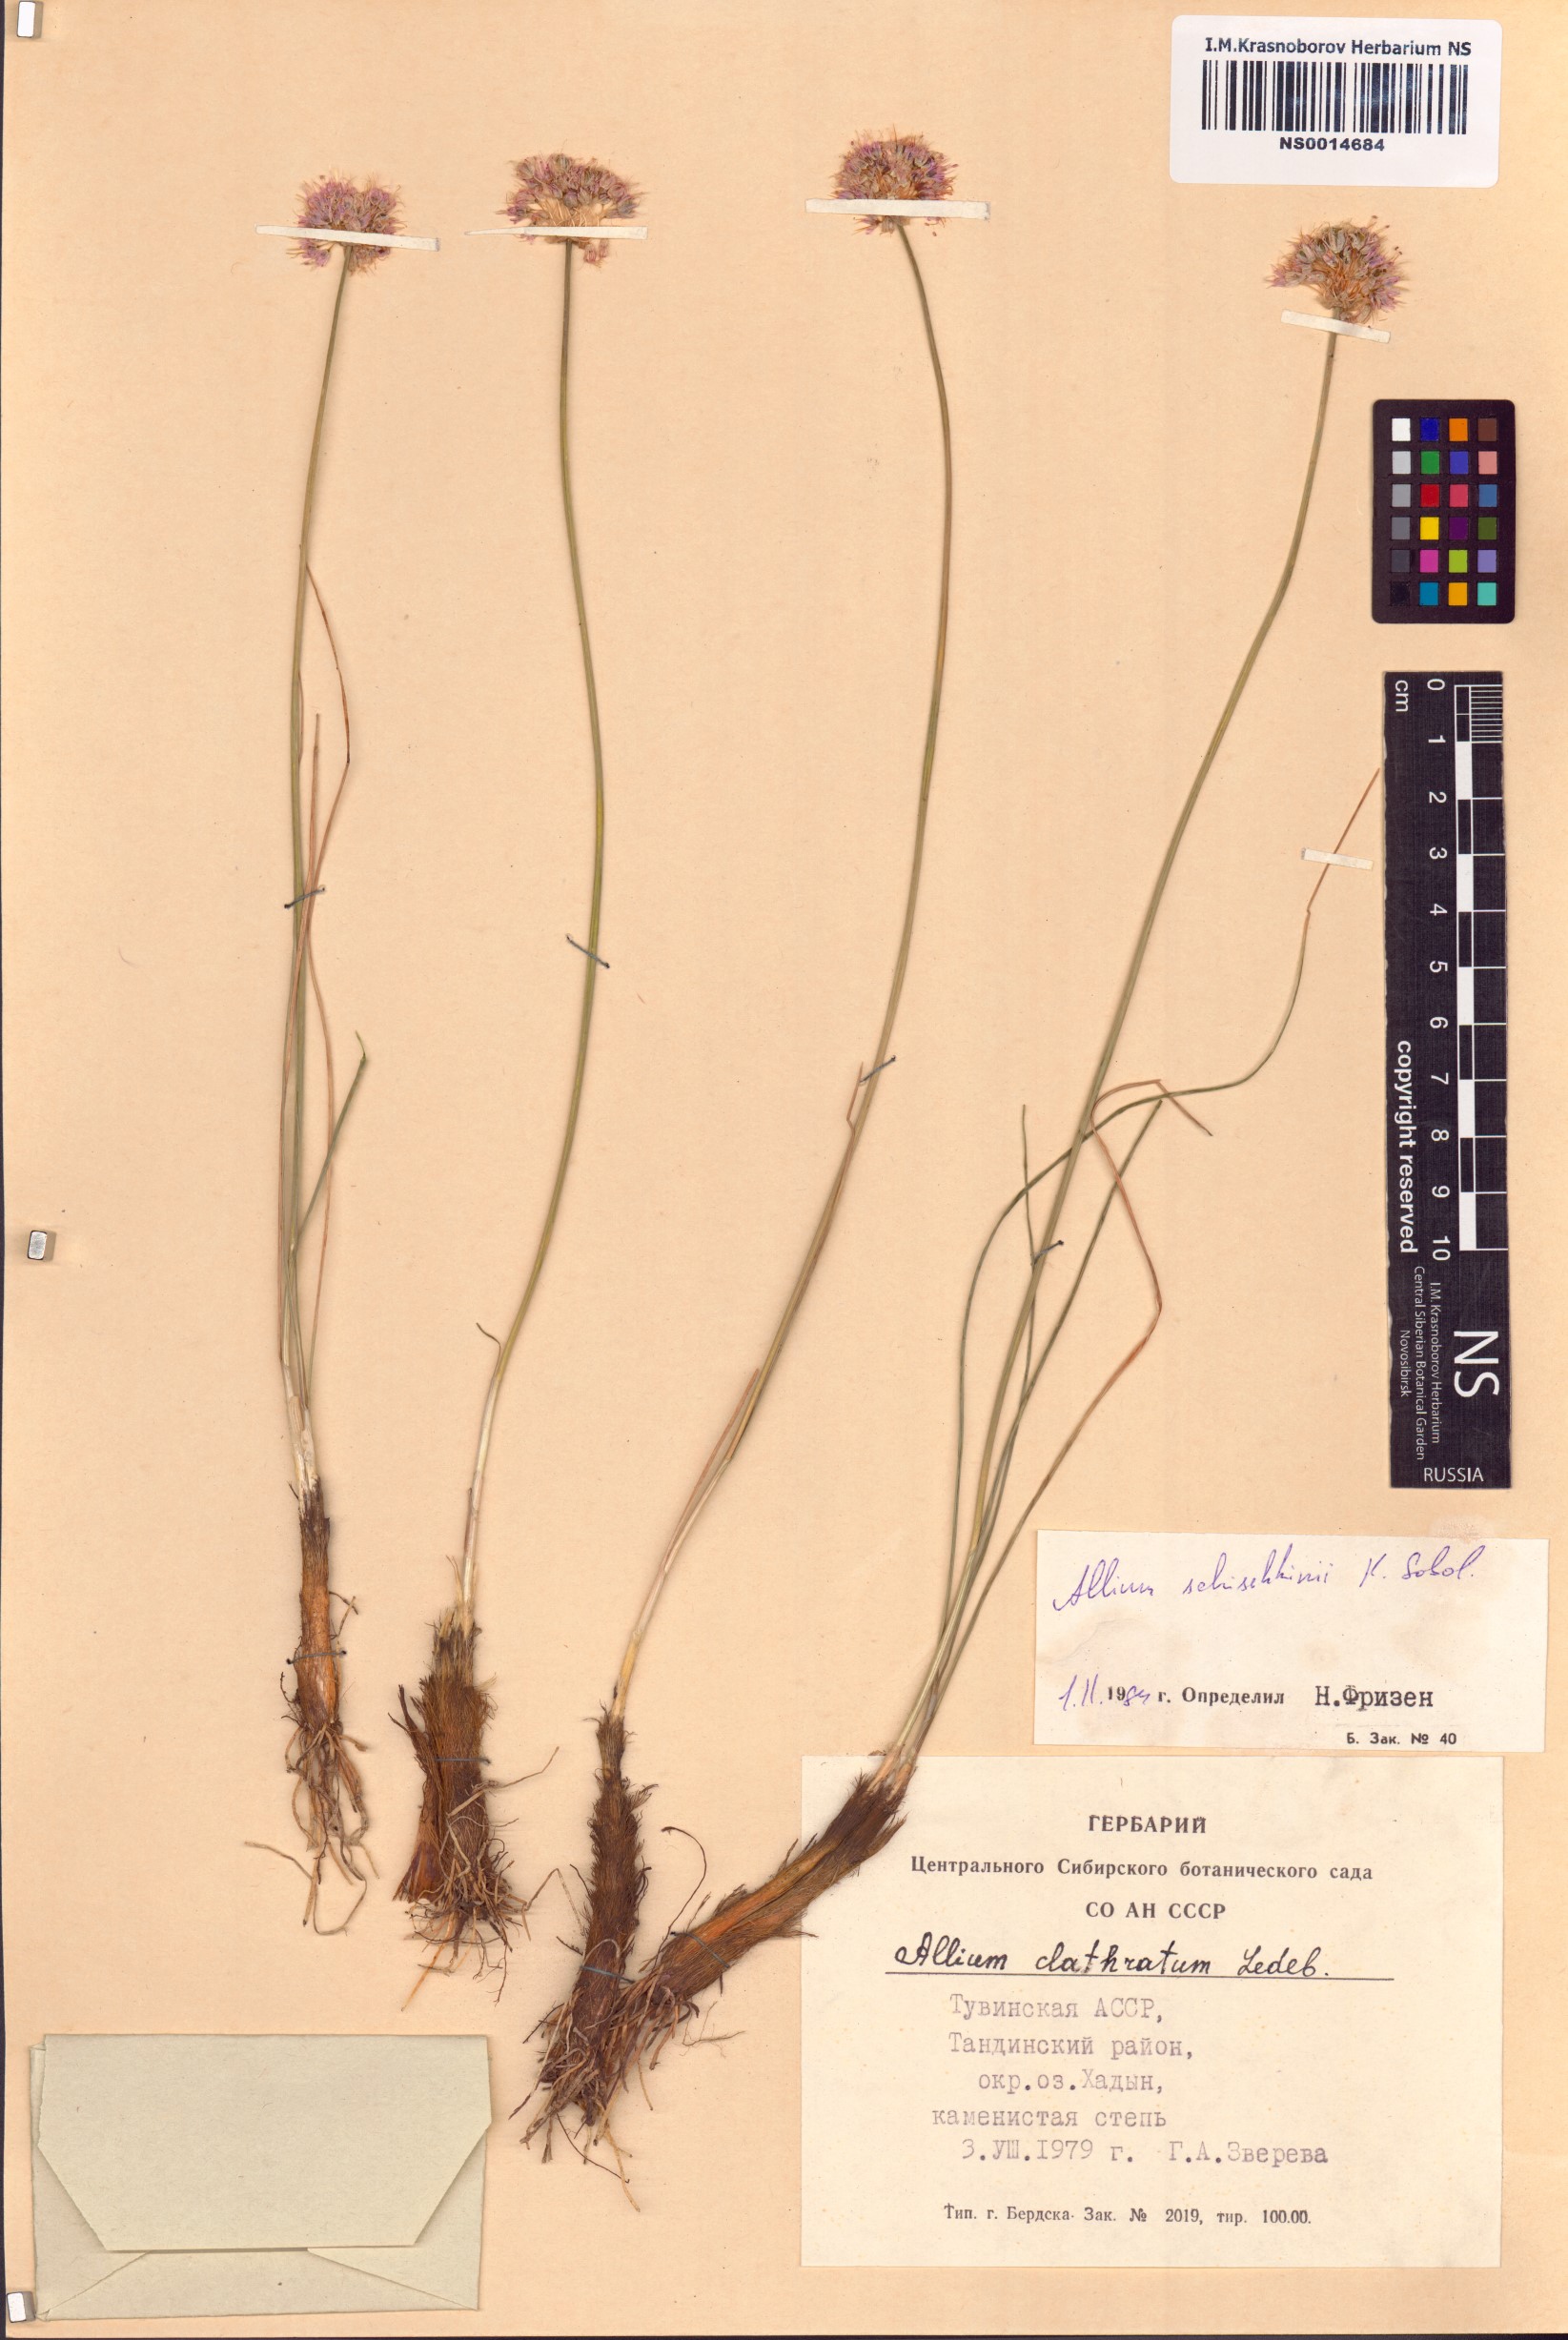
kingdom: Plantae
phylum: Tracheophyta
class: Liliopsida
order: Asparagales
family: Amaryllidaceae
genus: Allium
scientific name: Allium schischkinii
